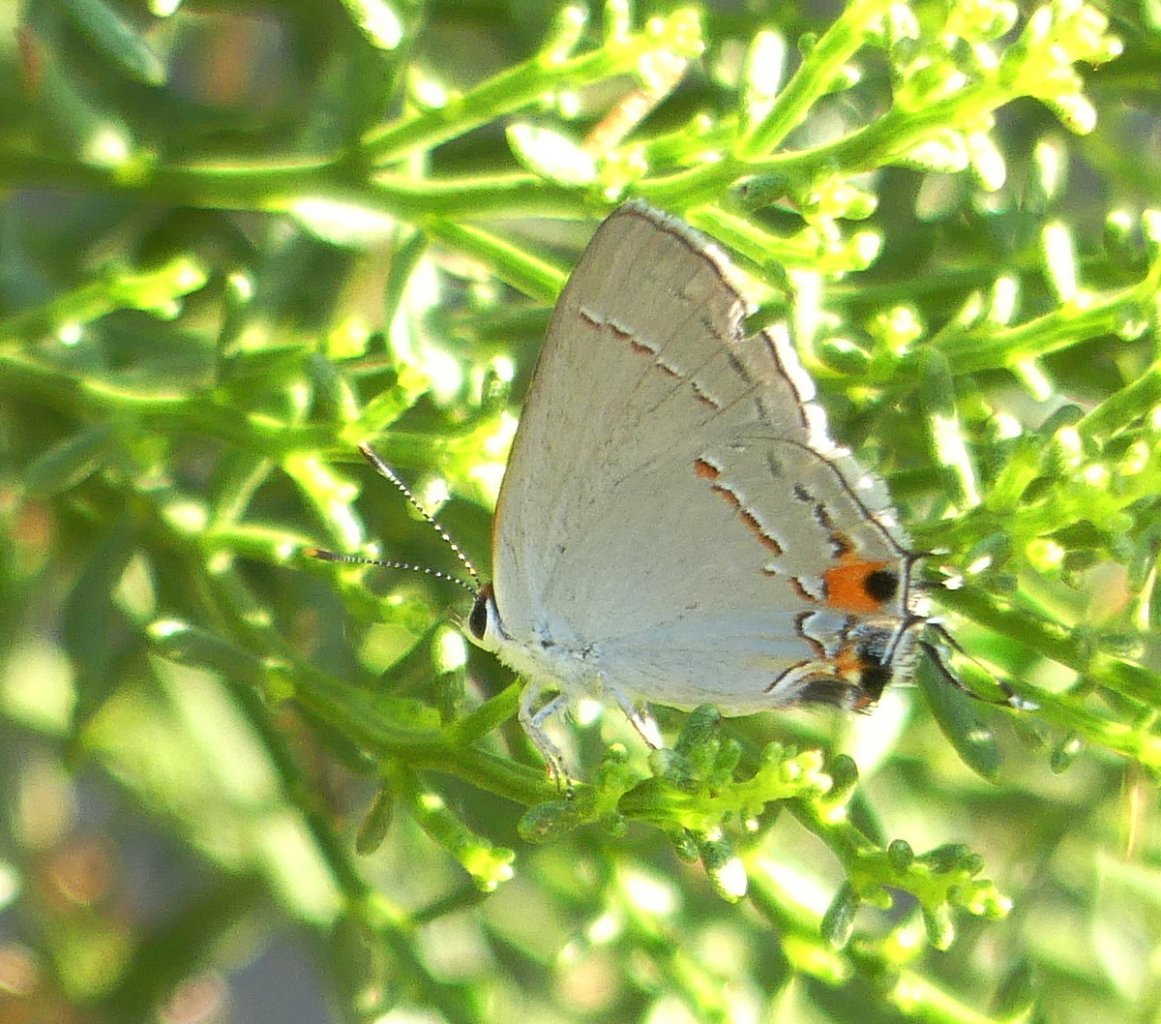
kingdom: Animalia
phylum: Arthropoda
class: Insecta
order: Lepidoptera
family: Lycaenidae
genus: Strymon
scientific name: Strymon melinus
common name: Gray Hairstreak
